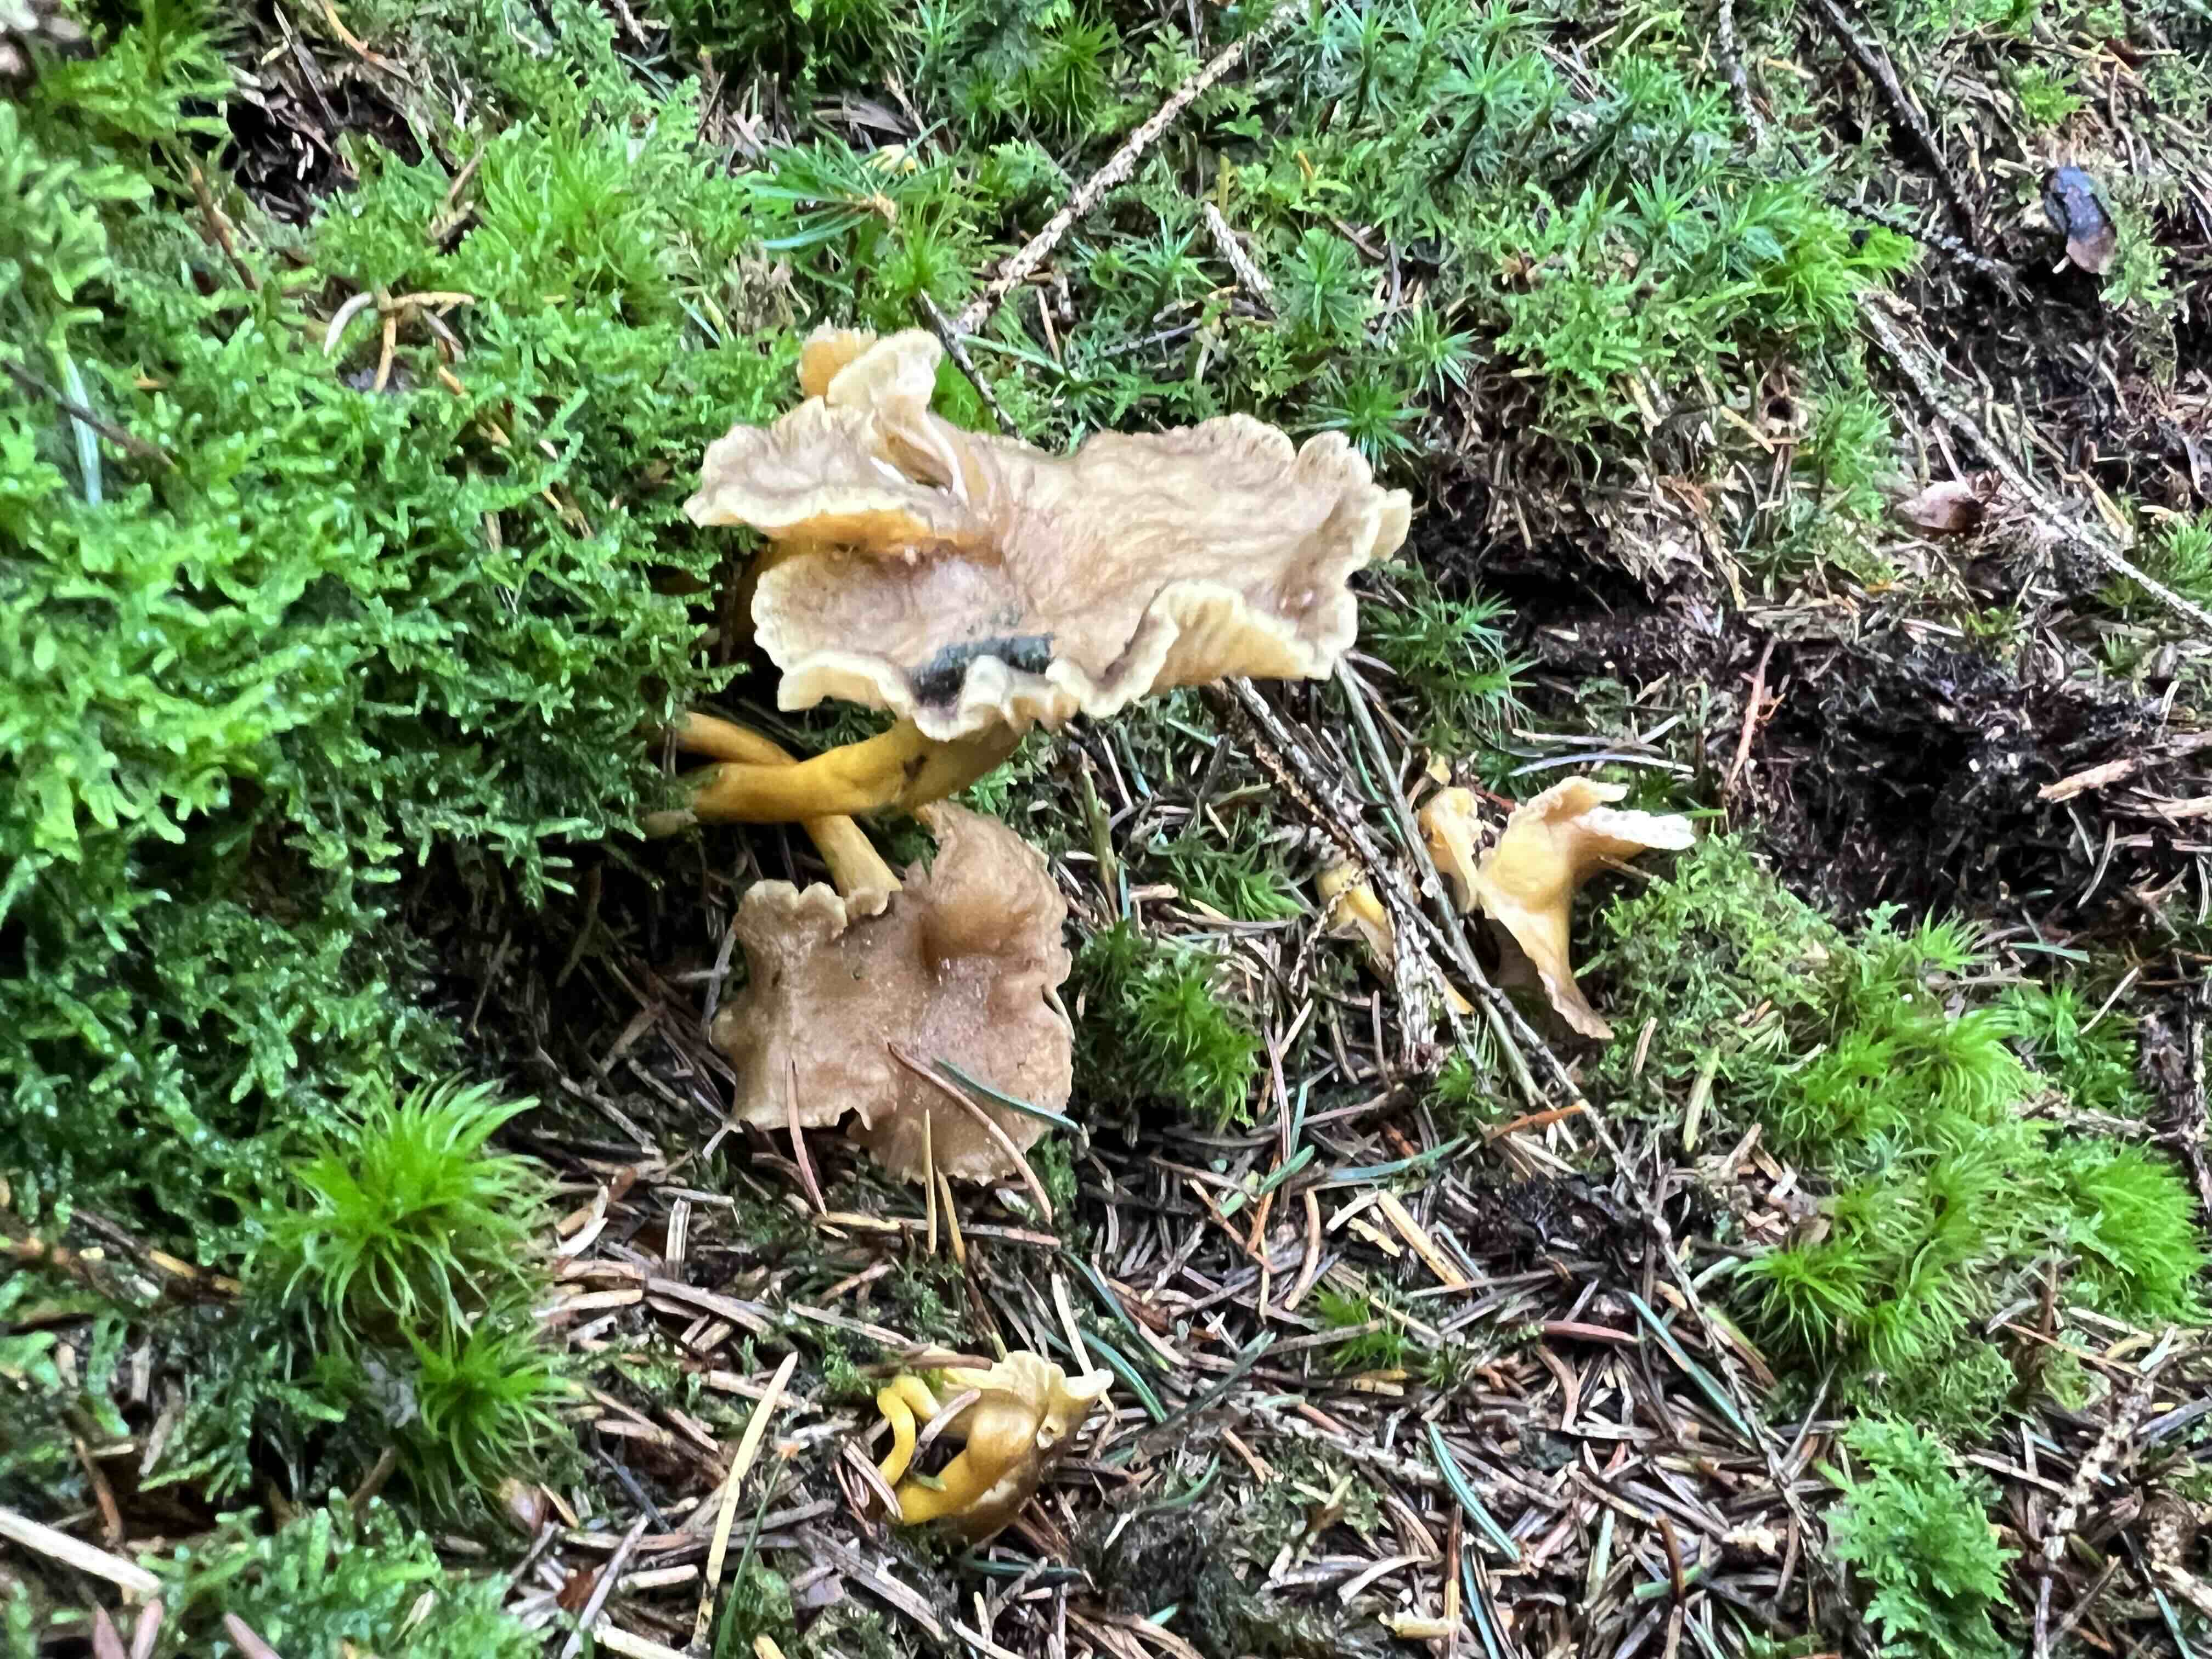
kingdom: Fungi
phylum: Basidiomycota
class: Agaricomycetes
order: Cantharellales
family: Hydnaceae
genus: Craterellus
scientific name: Craterellus tubaeformis
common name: tragt-kantarel
